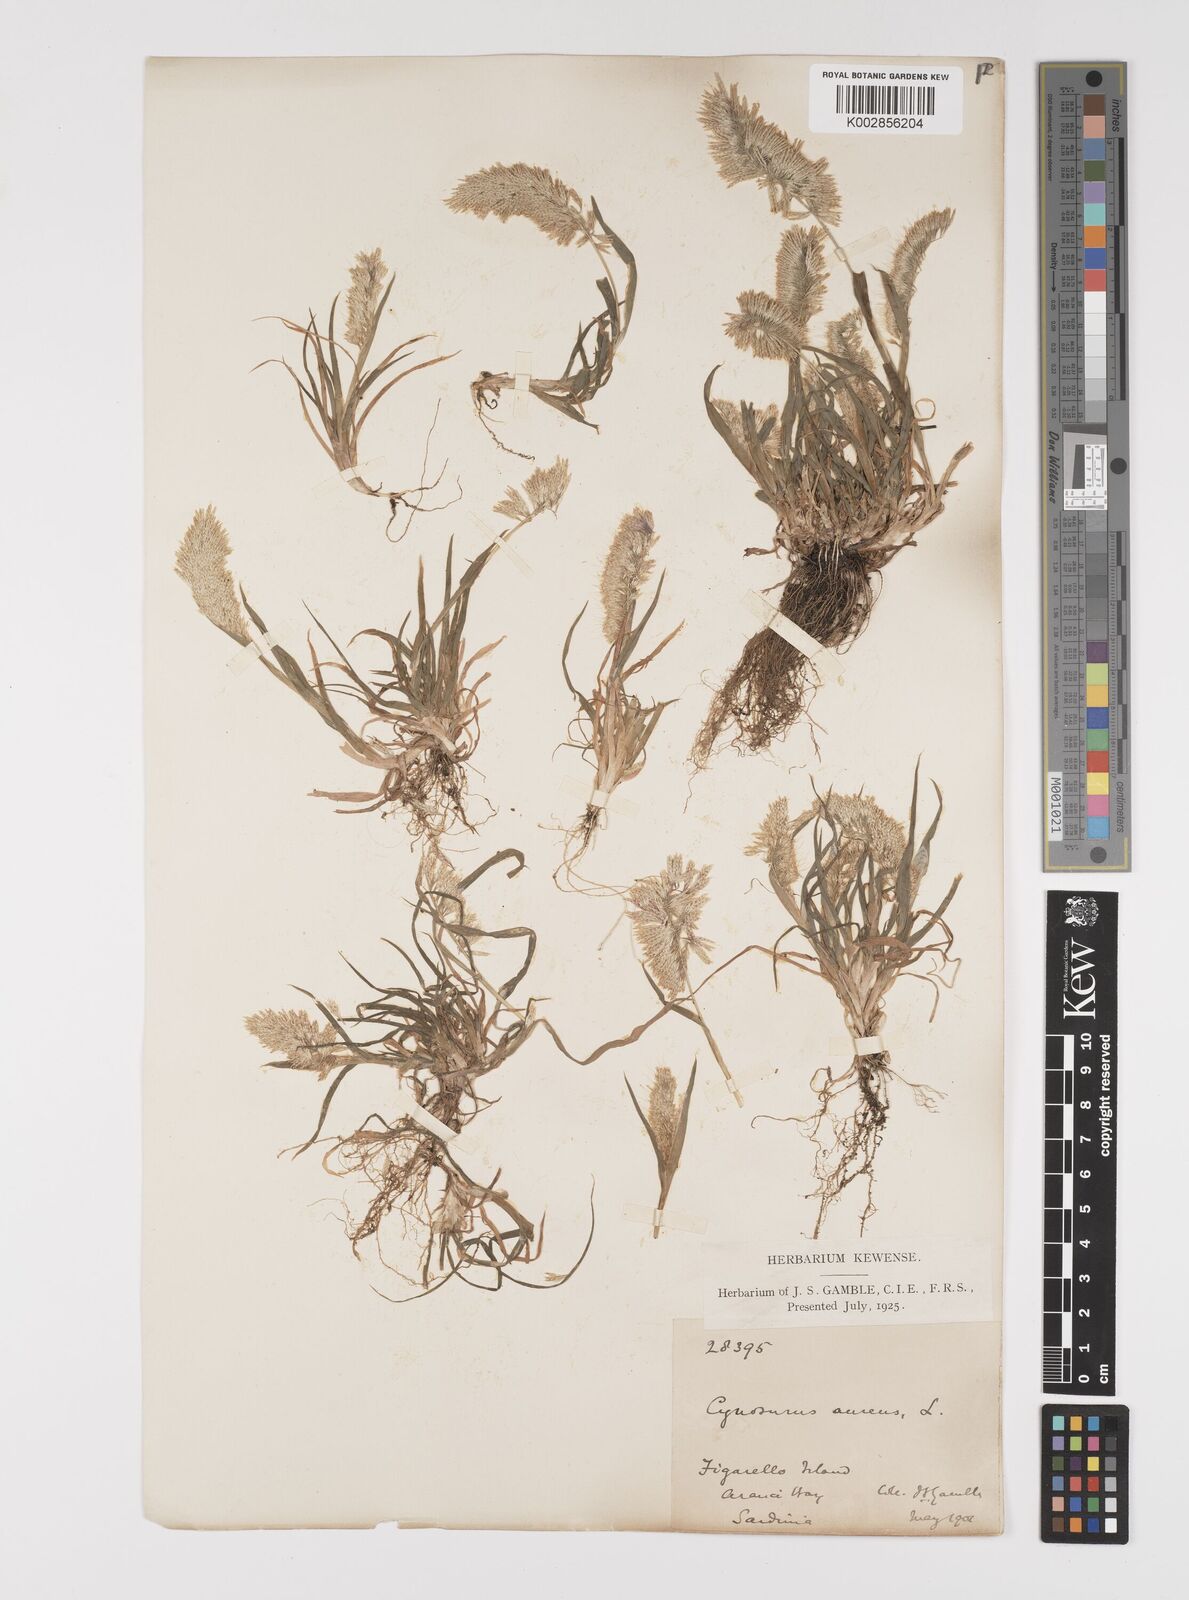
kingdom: Plantae
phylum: Tracheophyta
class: Liliopsida
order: Poales
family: Poaceae
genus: Lamarckia
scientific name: Lamarckia aurea
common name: Golden dog's-tail
